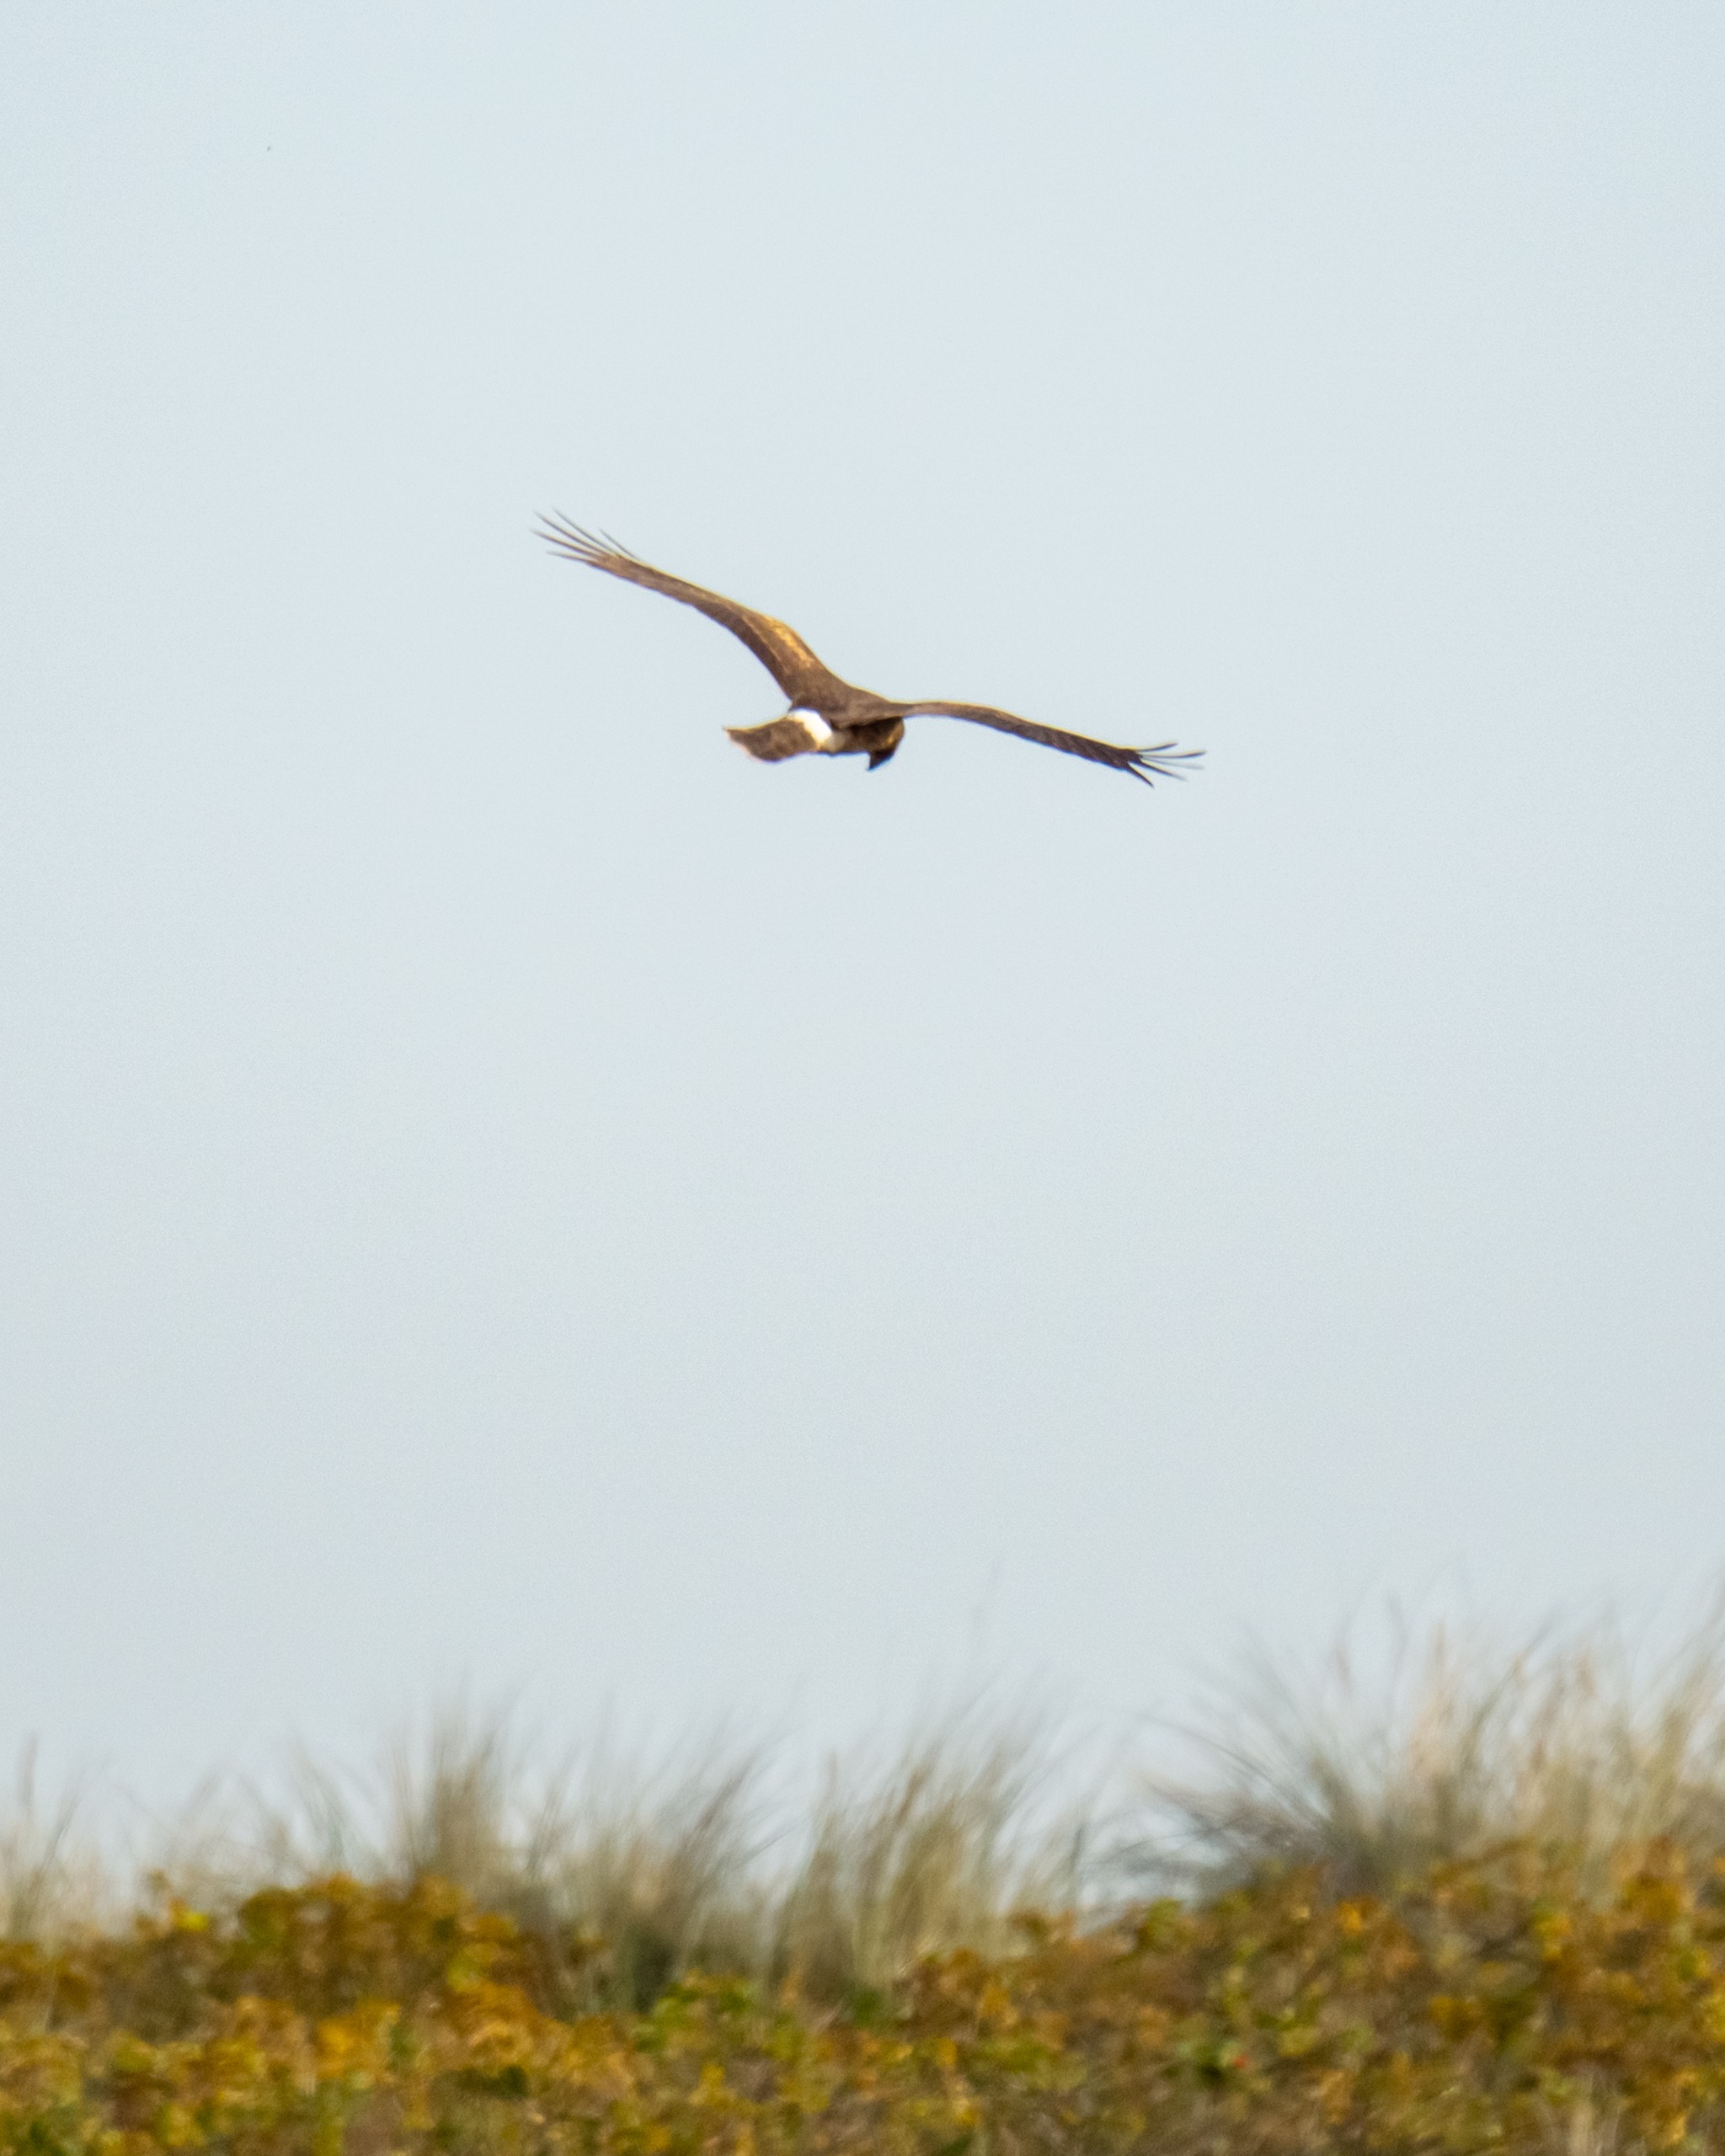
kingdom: Animalia
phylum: Chordata
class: Aves
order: Accipitriformes
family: Accipitridae
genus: Circus
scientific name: Circus cyaneus
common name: Blå kærhøg
